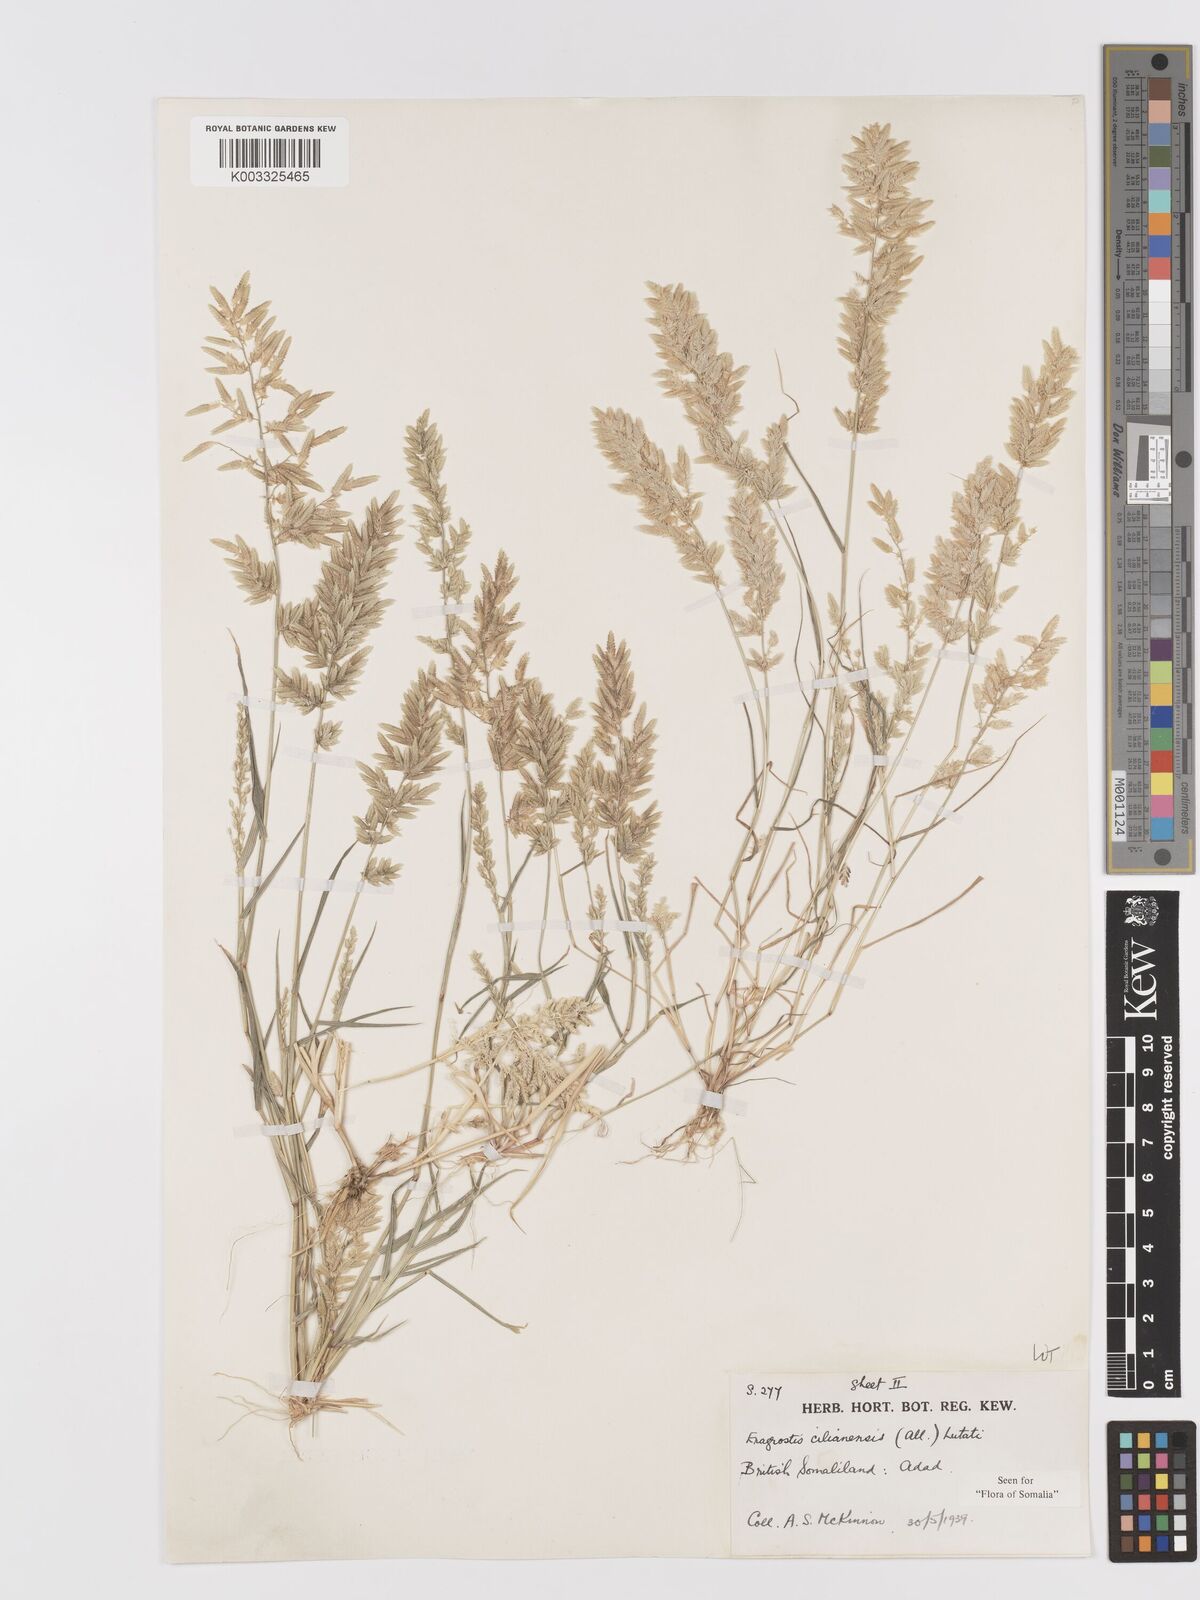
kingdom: Plantae
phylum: Tracheophyta
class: Liliopsida
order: Poales
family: Poaceae
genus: Eragrostis
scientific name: Eragrostis cilianensis
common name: Stinkgrass
